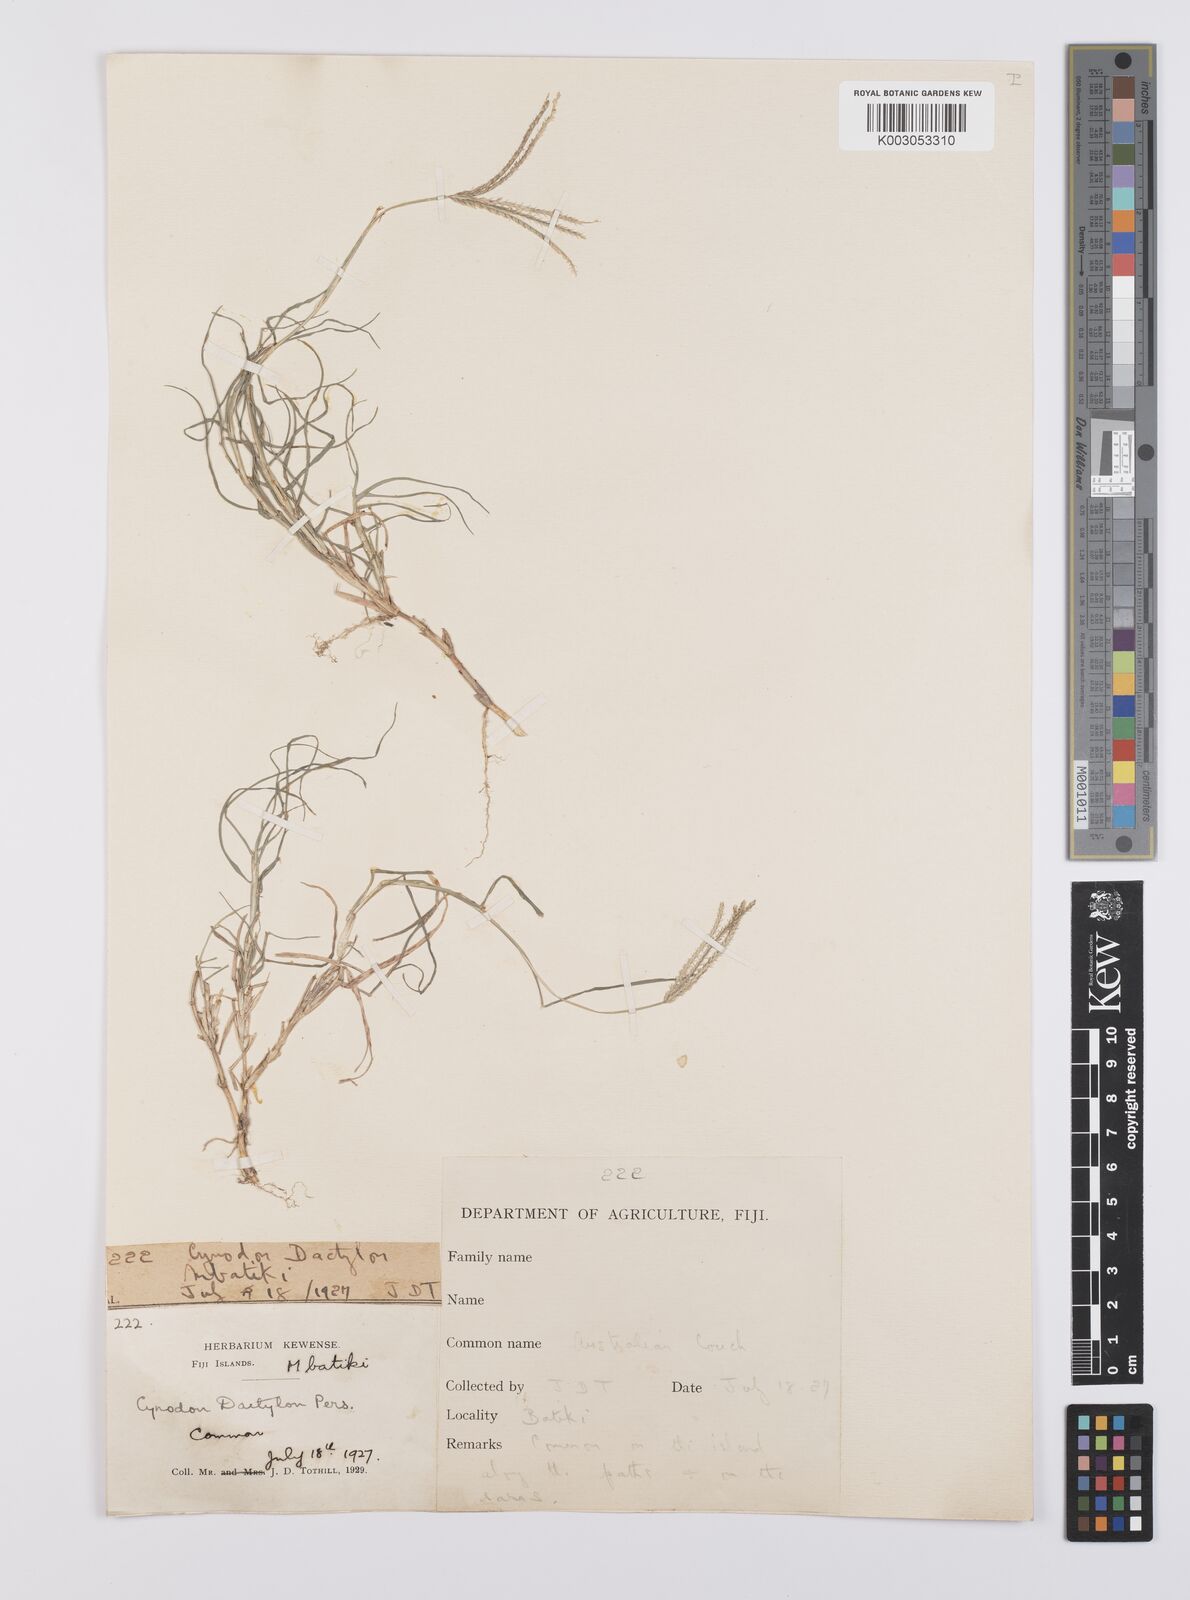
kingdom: Plantae
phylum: Tracheophyta
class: Liliopsida
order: Poales
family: Poaceae
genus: Cynodon
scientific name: Cynodon dactylon
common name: Bermuda grass
